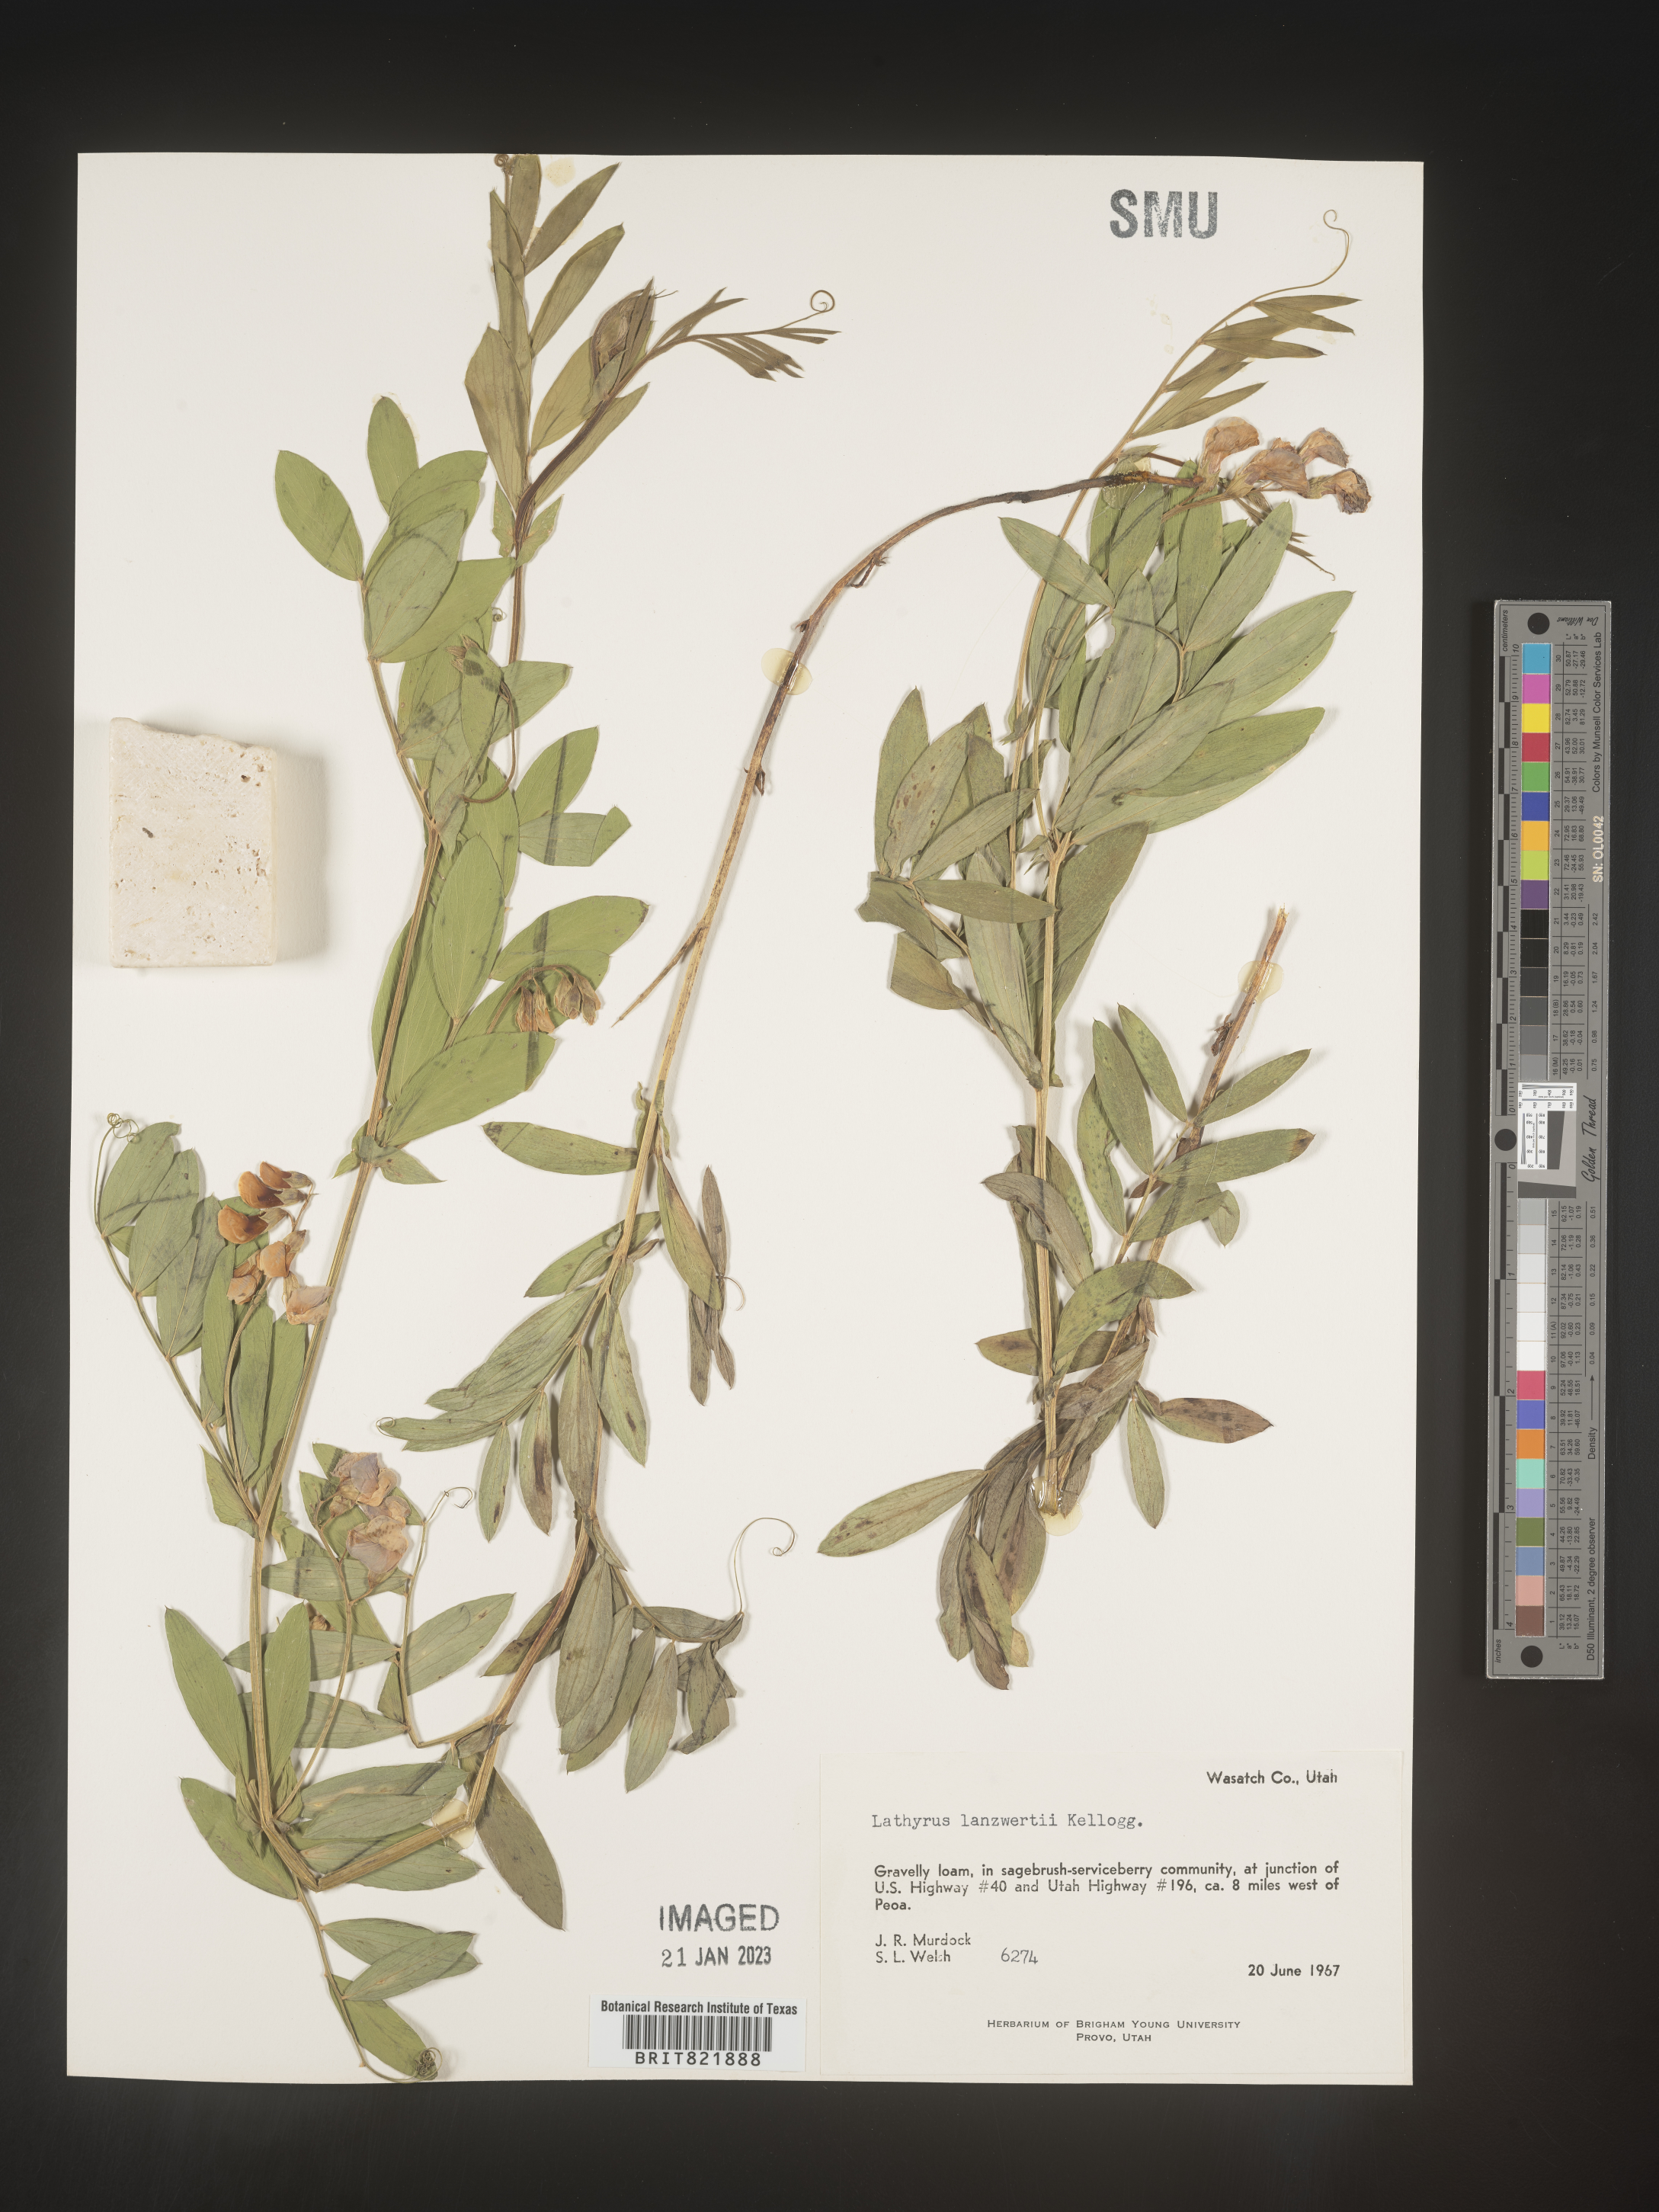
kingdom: Plantae
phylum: Tracheophyta
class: Magnoliopsida
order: Fabales
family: Fabaceae
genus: Lathyrus
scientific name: Lathyrus
